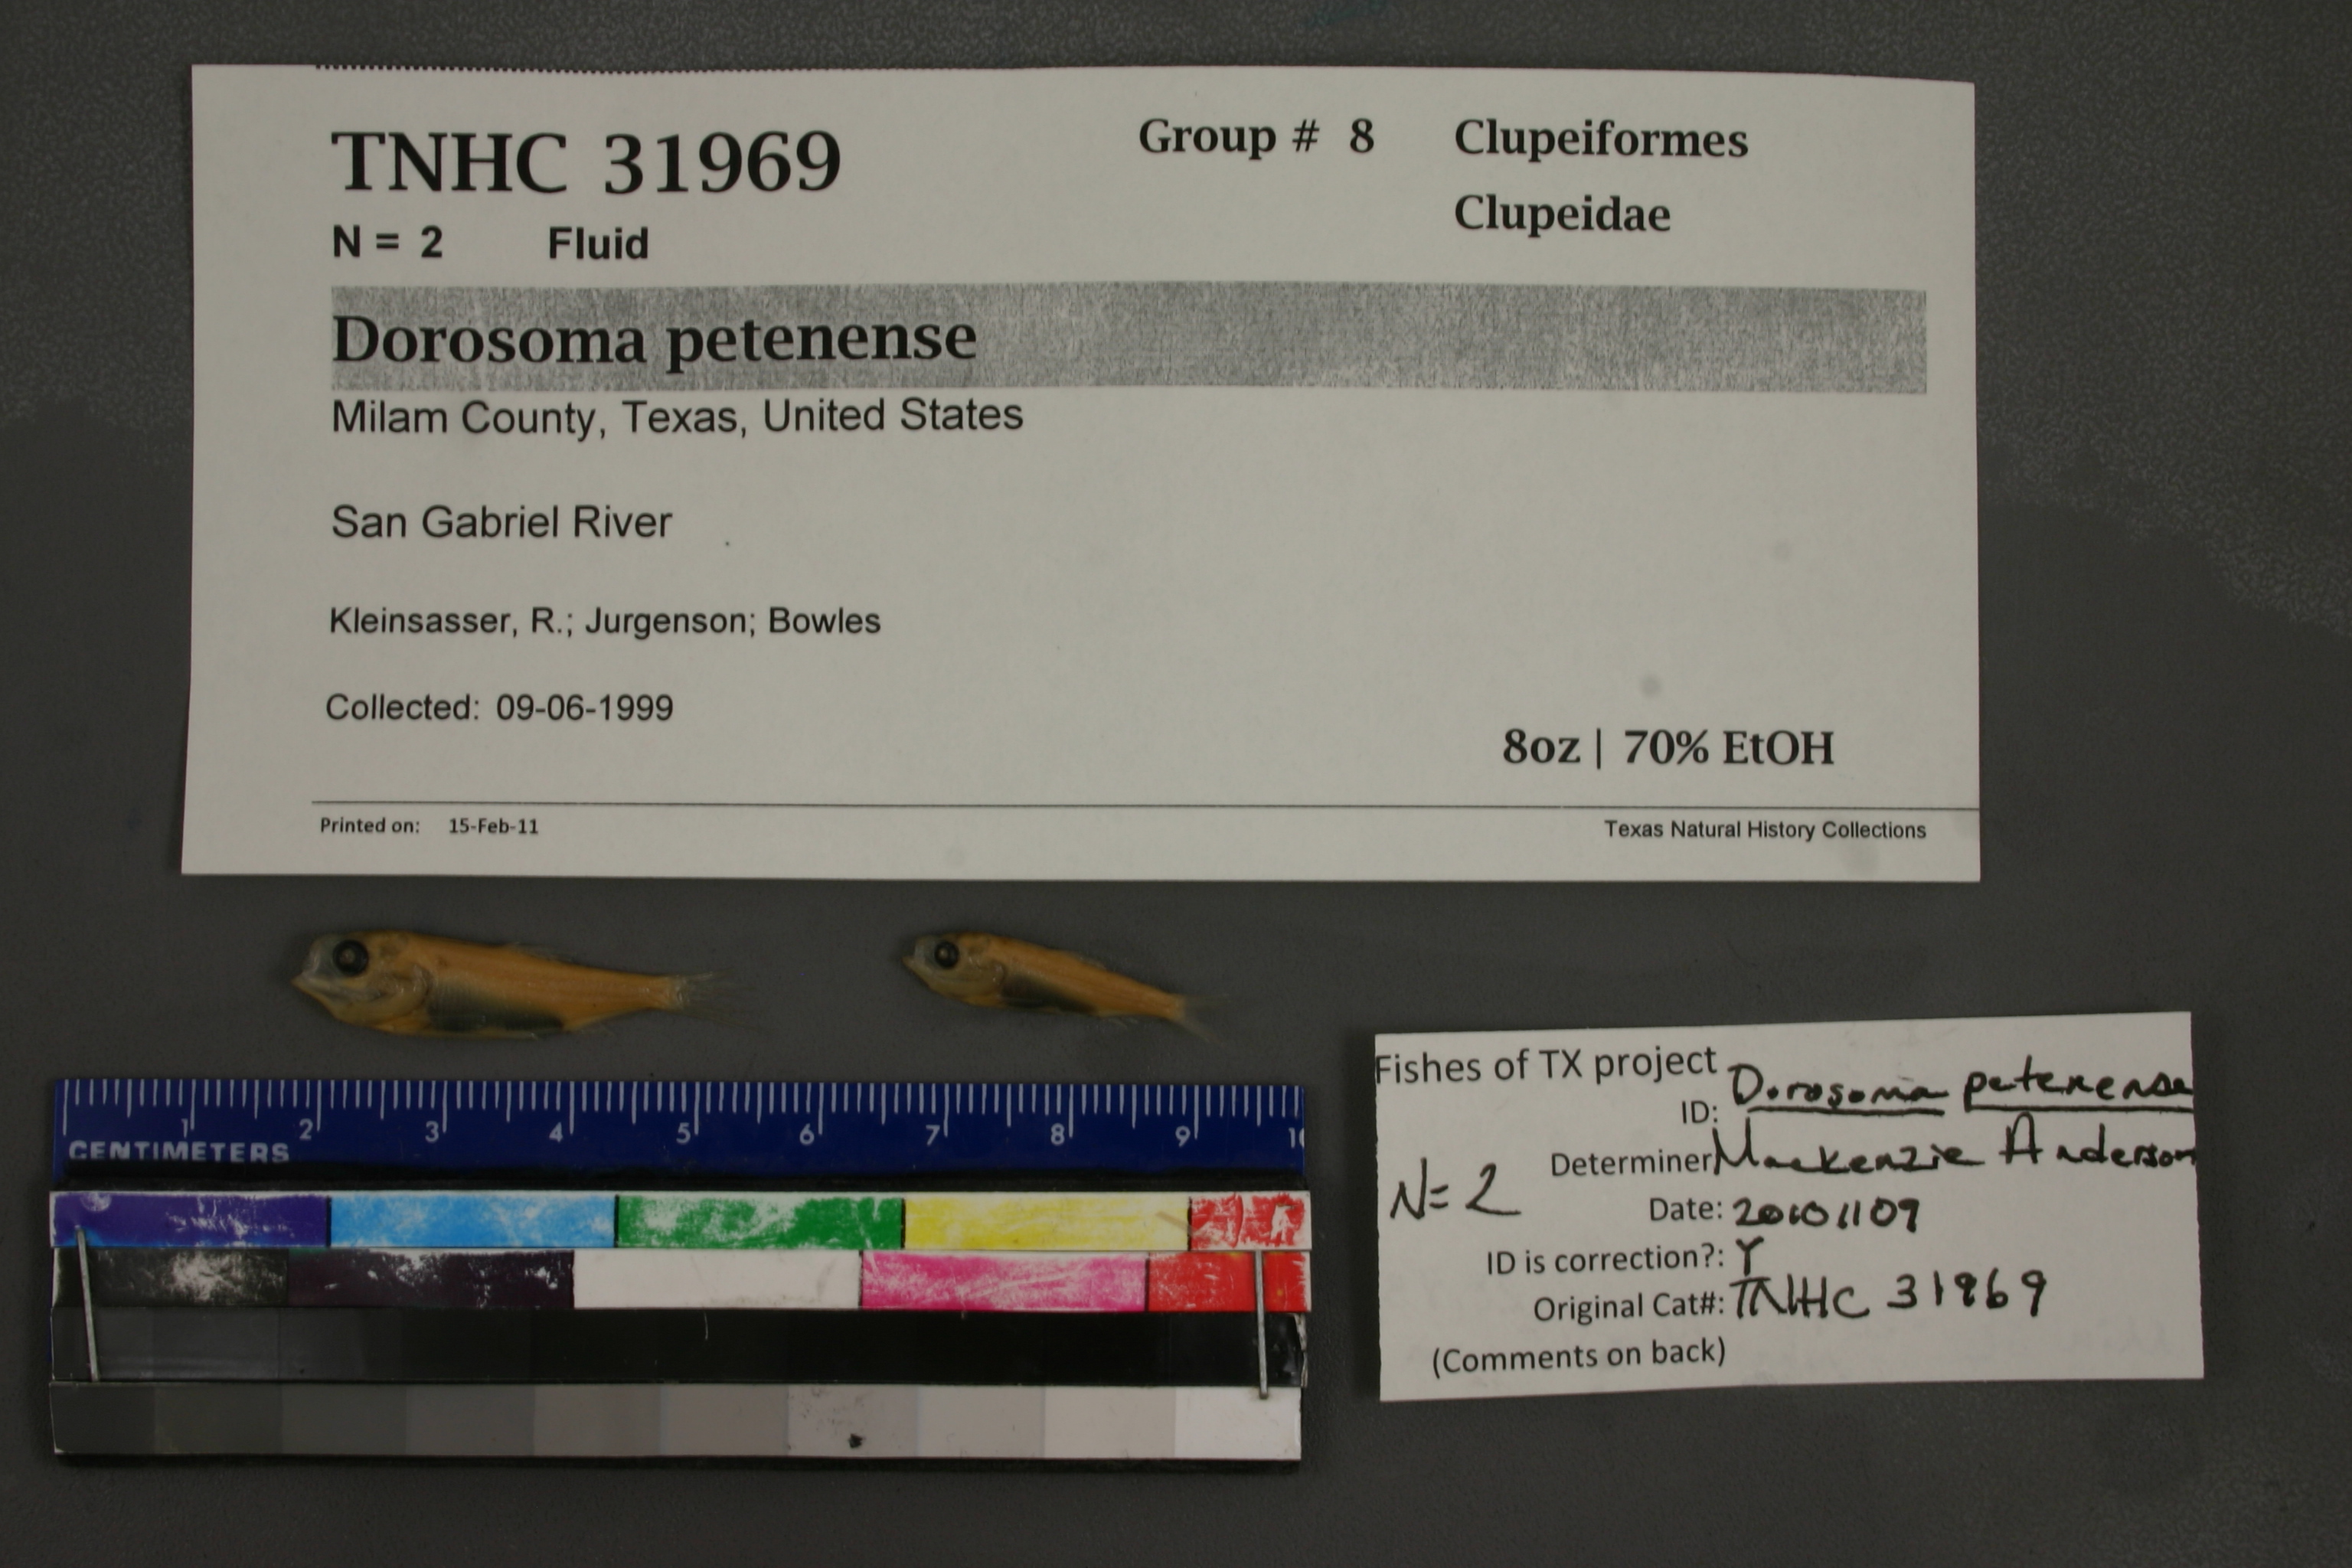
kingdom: Animalia
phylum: Chordata
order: Clupeiformes
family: Clupeidae
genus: Dorosoma
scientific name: Dorosoma petenense
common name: Threadfin shad
